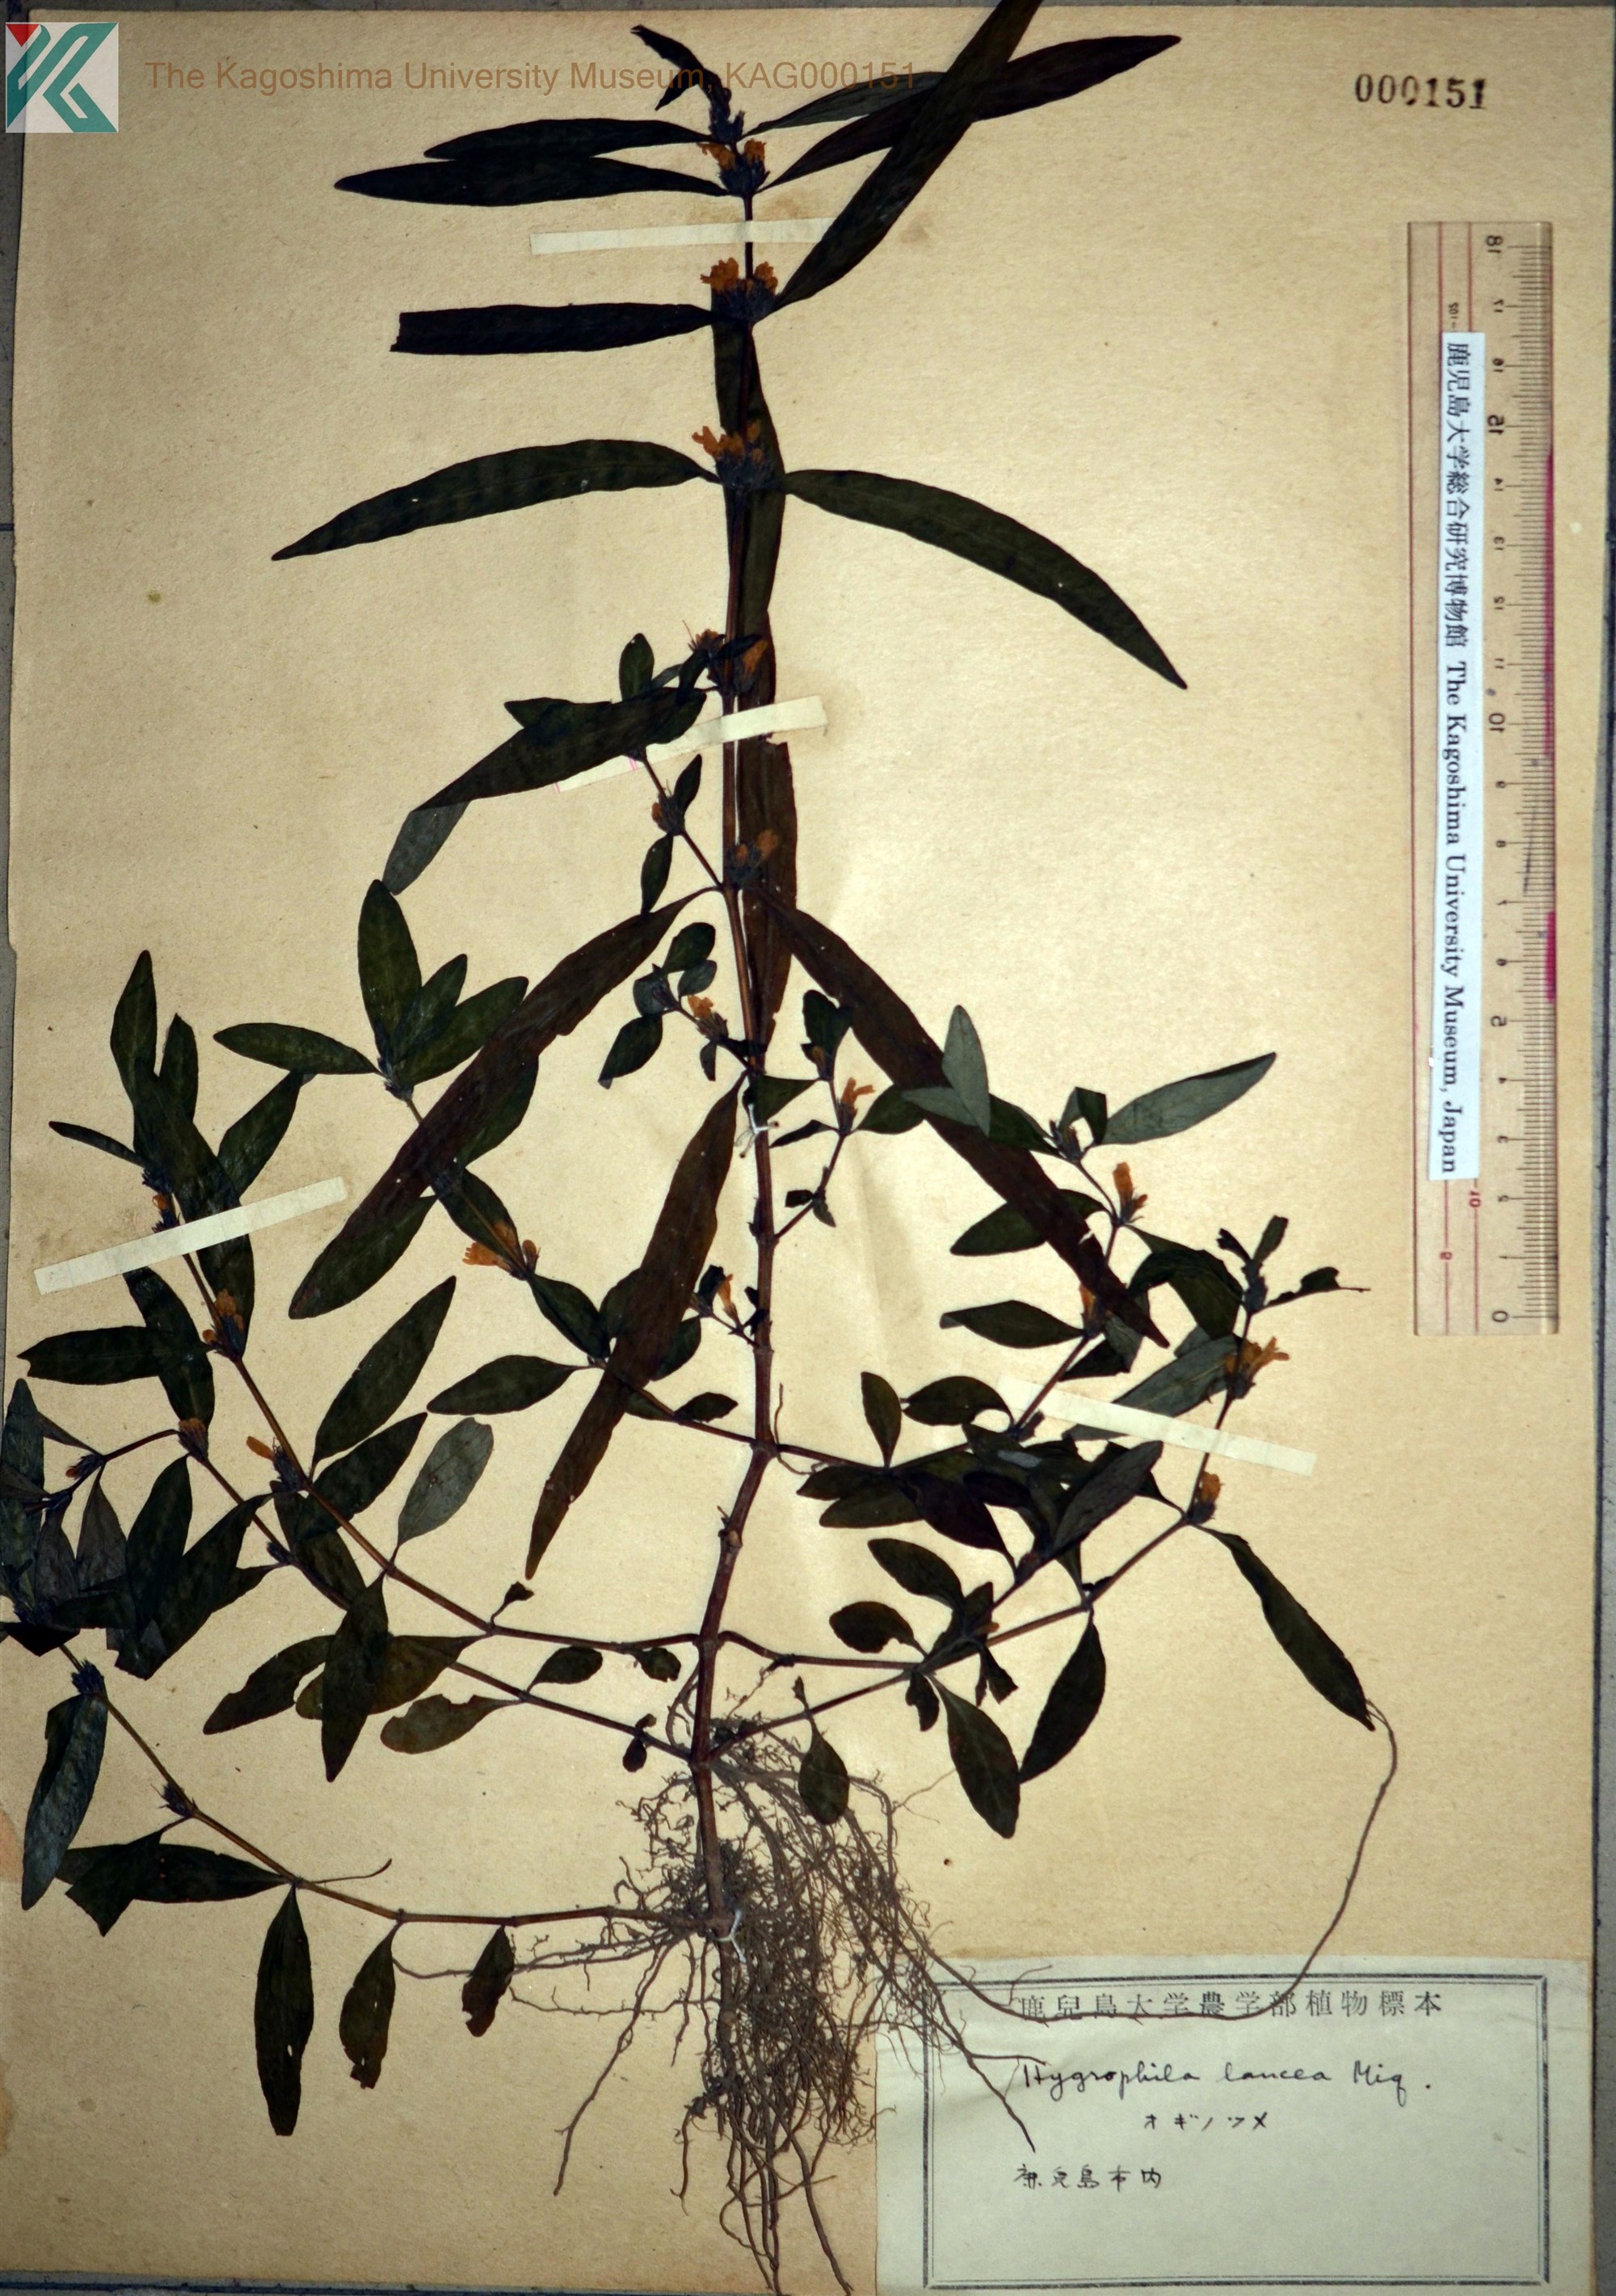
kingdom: Plantae
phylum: Tracheophyta
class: Magnoliopsida
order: Lamiales
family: Acanthaceae
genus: Hygrophila
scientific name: Hygrophila ringens
